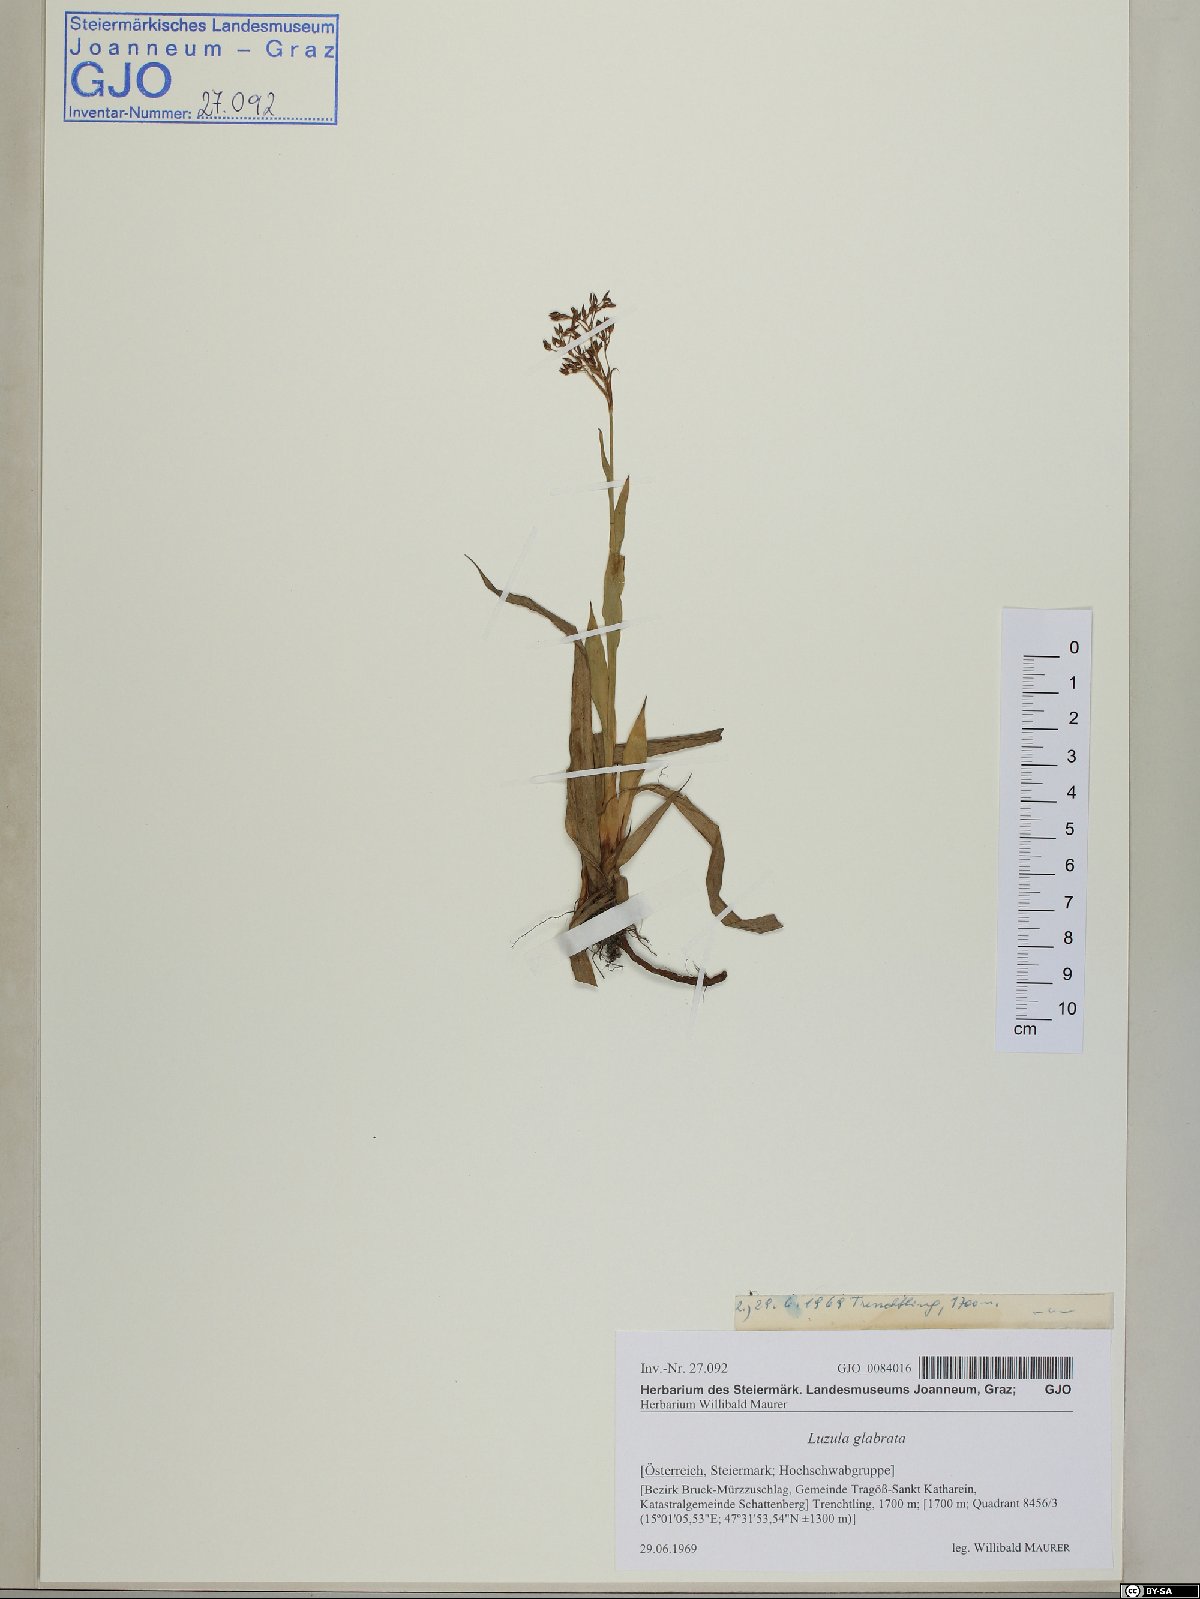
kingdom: Plantae
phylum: Tracheophyta
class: Liliopsida
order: Poales
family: Juncaceae
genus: Luzula
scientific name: Luzula glabrata
